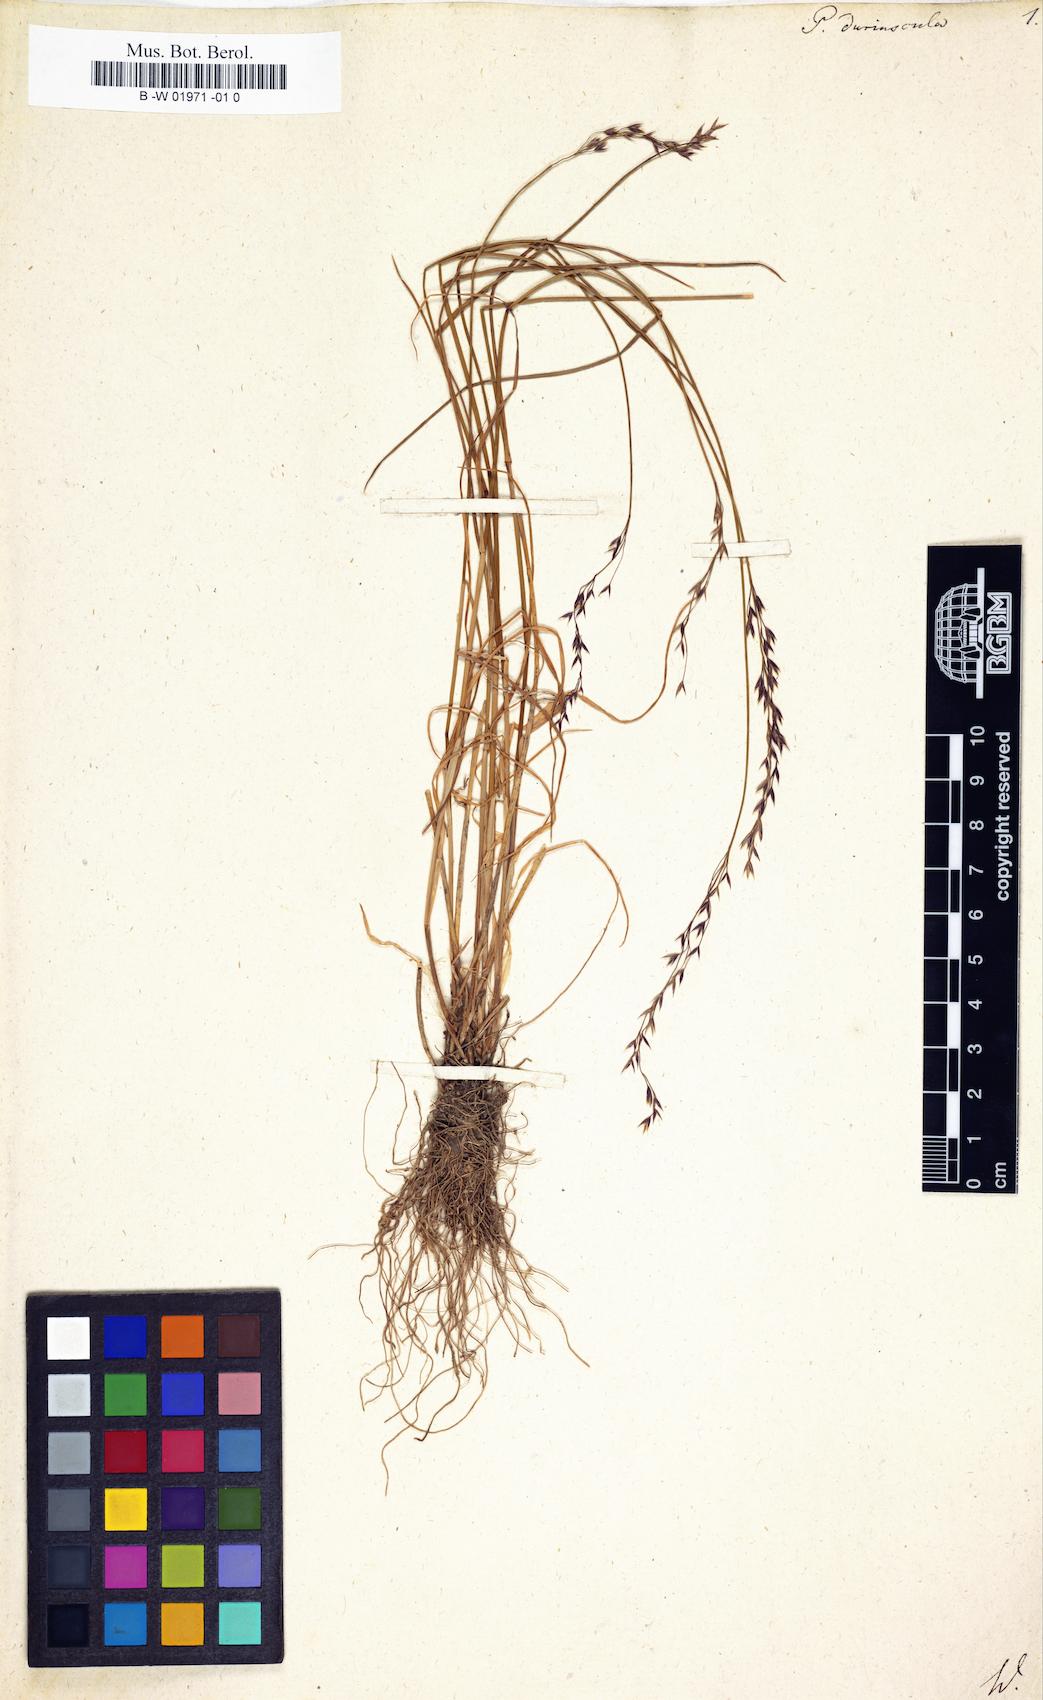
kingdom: Plantae
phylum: Tracheophyta
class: Liliopsida
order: Poales
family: Poaceae
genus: Poa
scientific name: Poa supina
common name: Supina bluegrass
